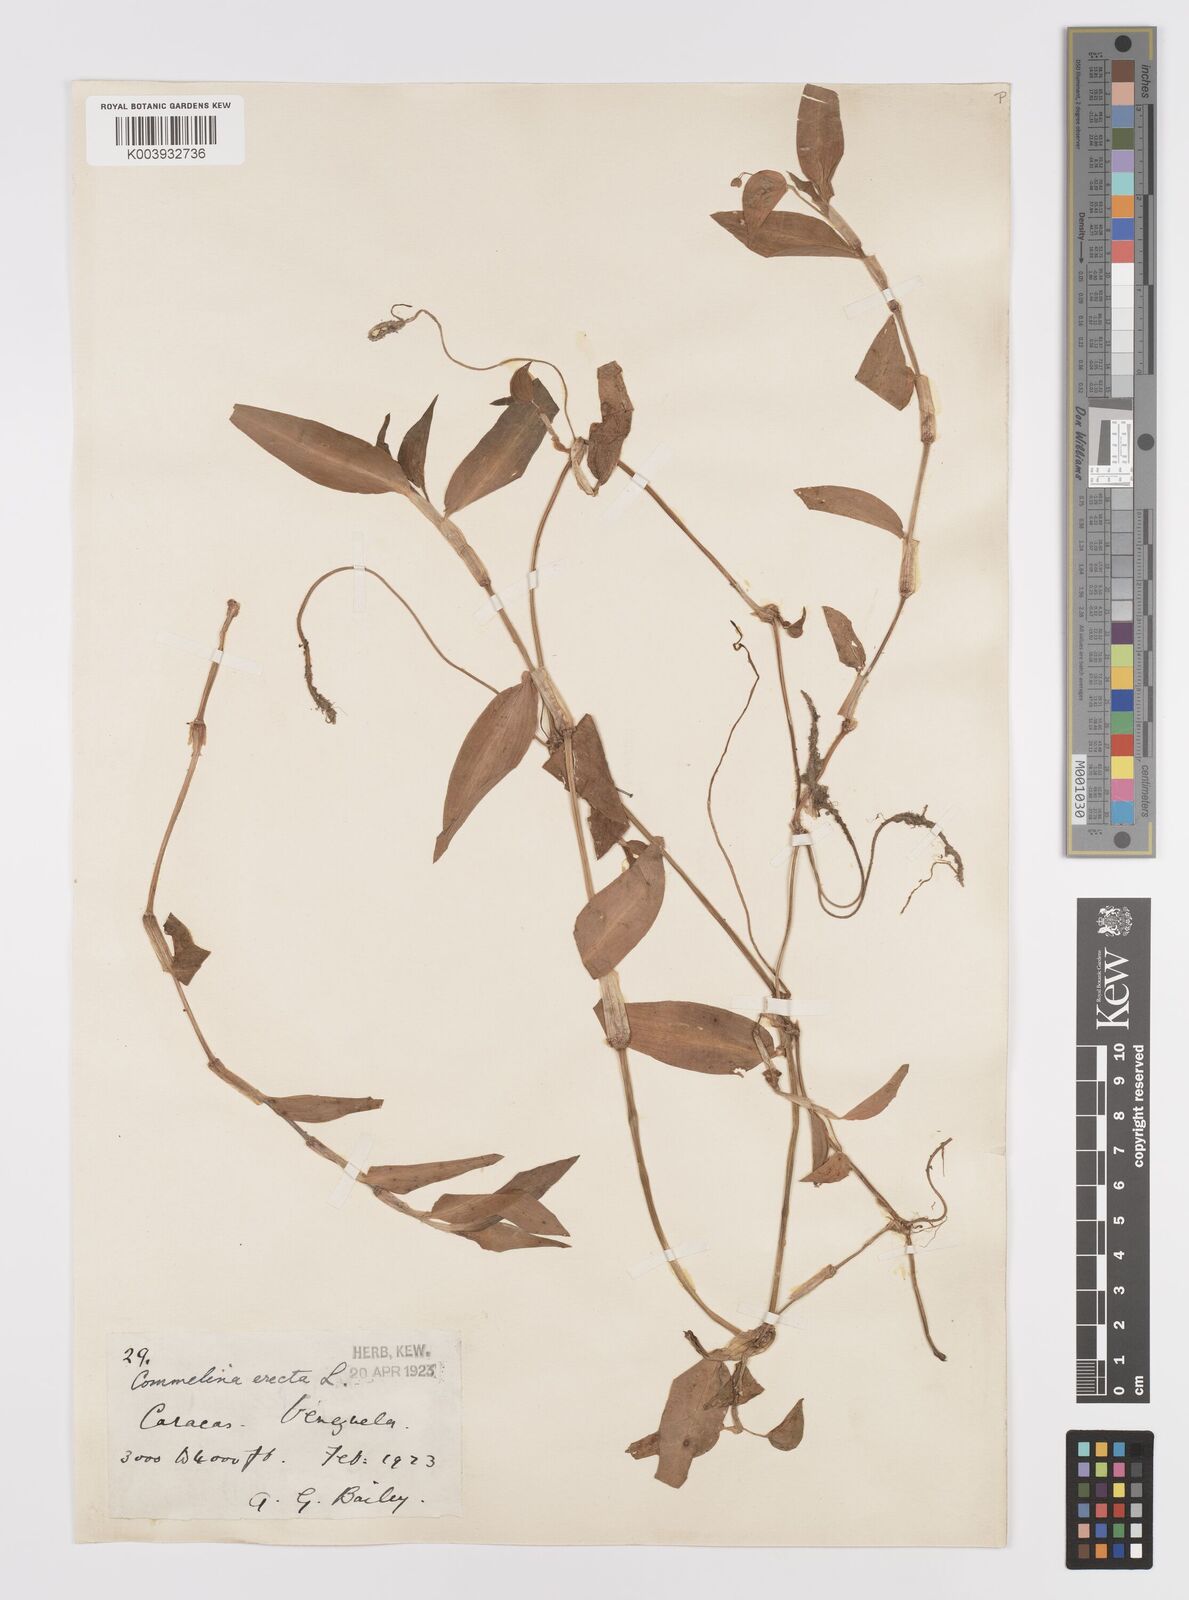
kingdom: Plantae
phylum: Tracheophyta
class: Liliopsida
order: Commelinales
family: Commelinaceae
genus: Commelina
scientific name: Commelina erecta
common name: Blousel blommetjie
